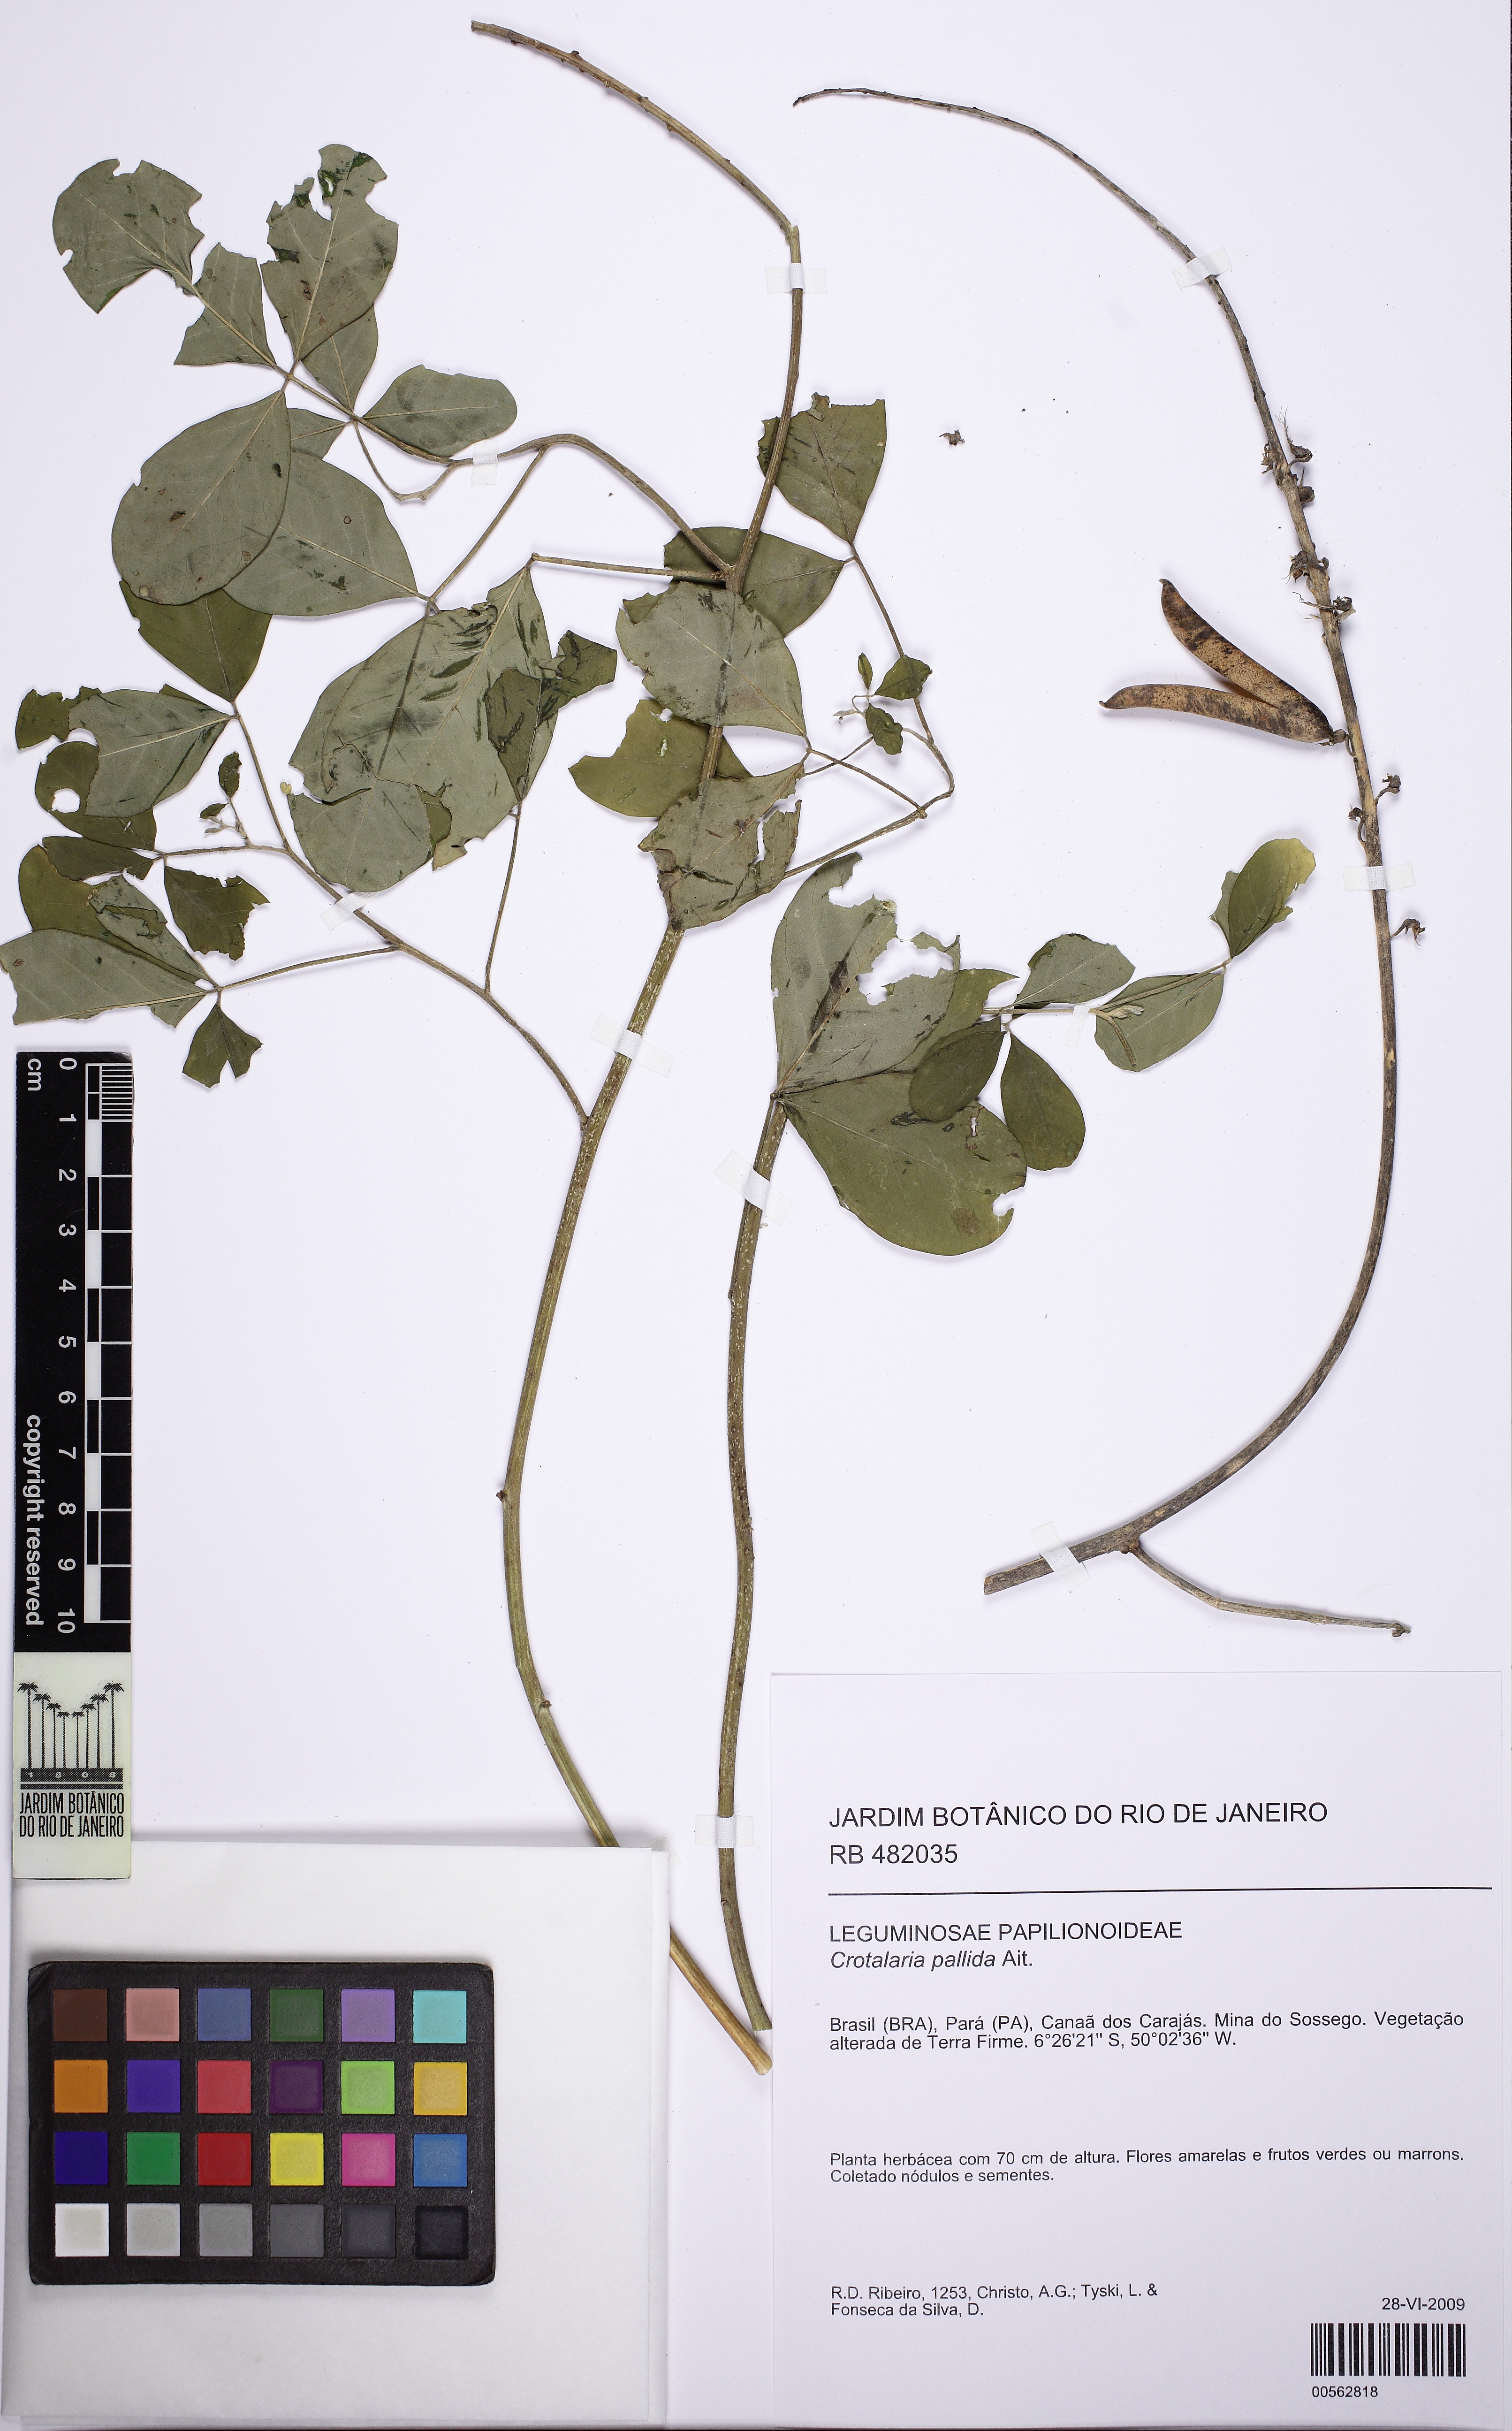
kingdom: Plantae
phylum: Tracheophyta
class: Magnoliopsida
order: Fabales
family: Fabaceae
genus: Crotalaria
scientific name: Crotalaria pallida
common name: Smooth rattlebox
